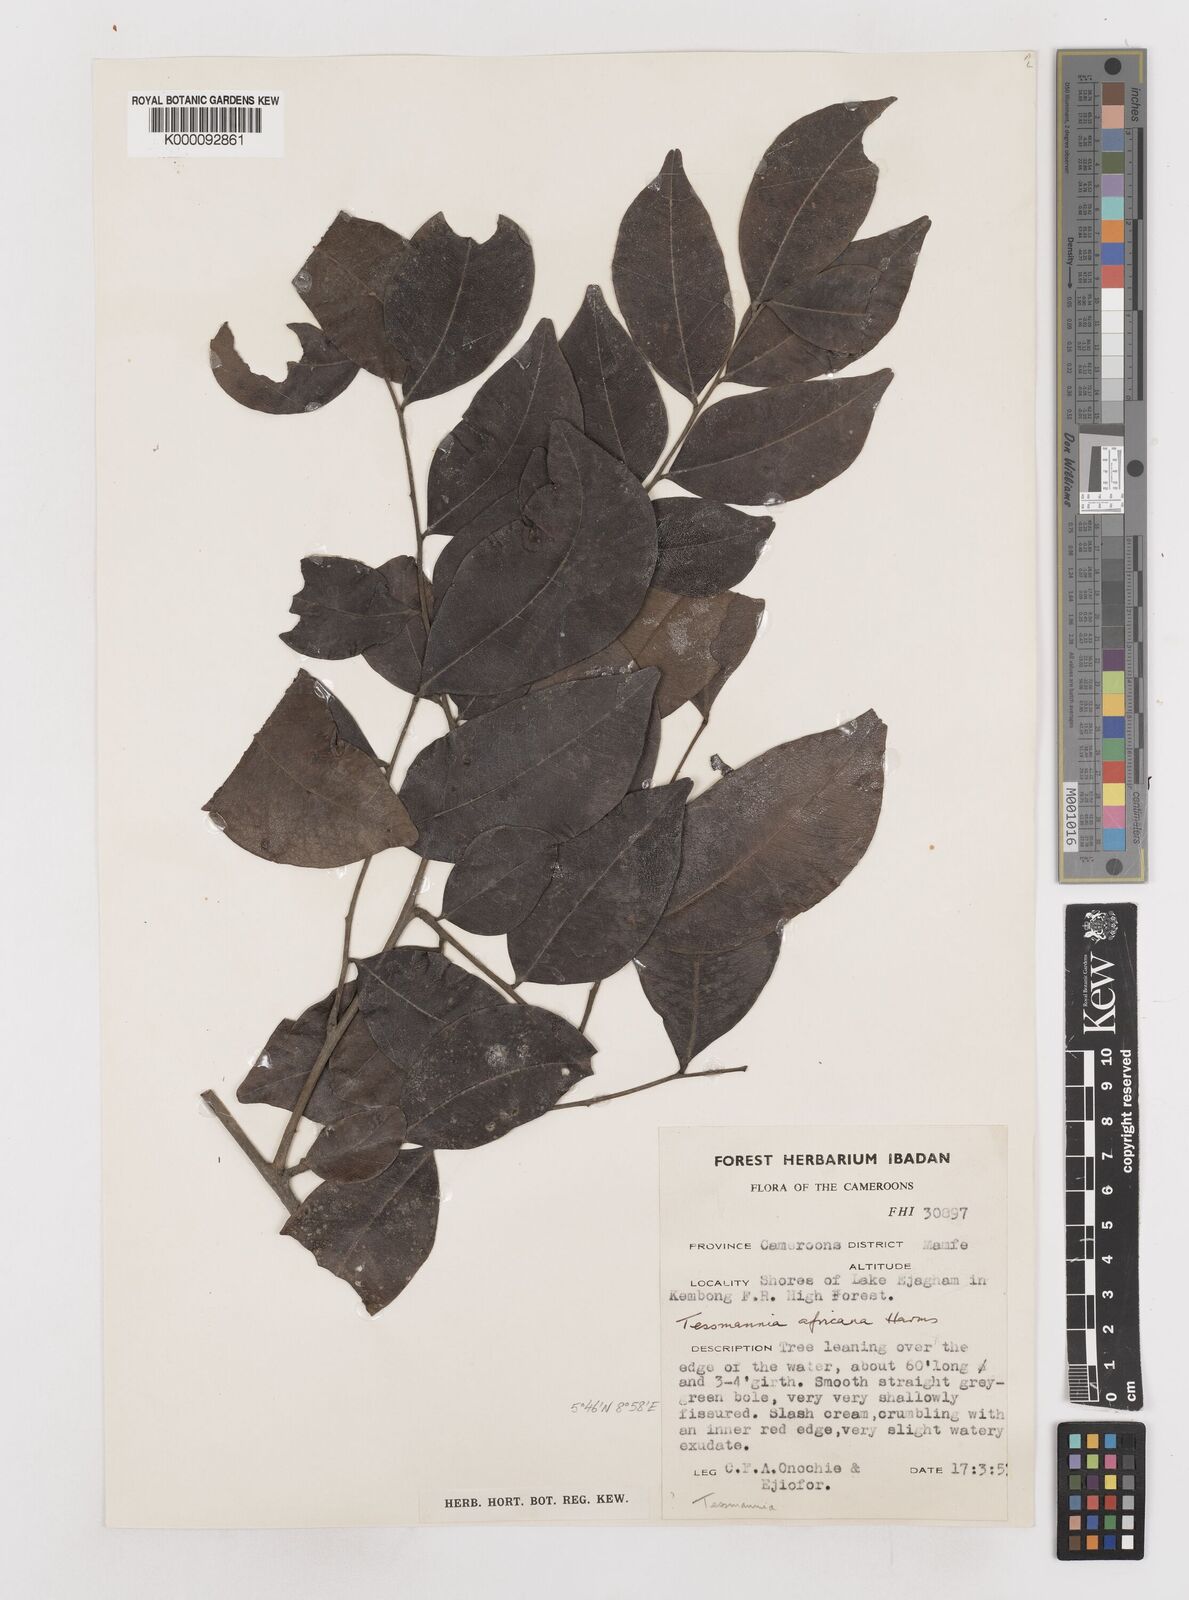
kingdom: Plantae
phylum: Tracheophyta
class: Magnoliopsida
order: Fabales
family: Fabaceae
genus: Tessmannia
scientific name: Tessmannia africana
